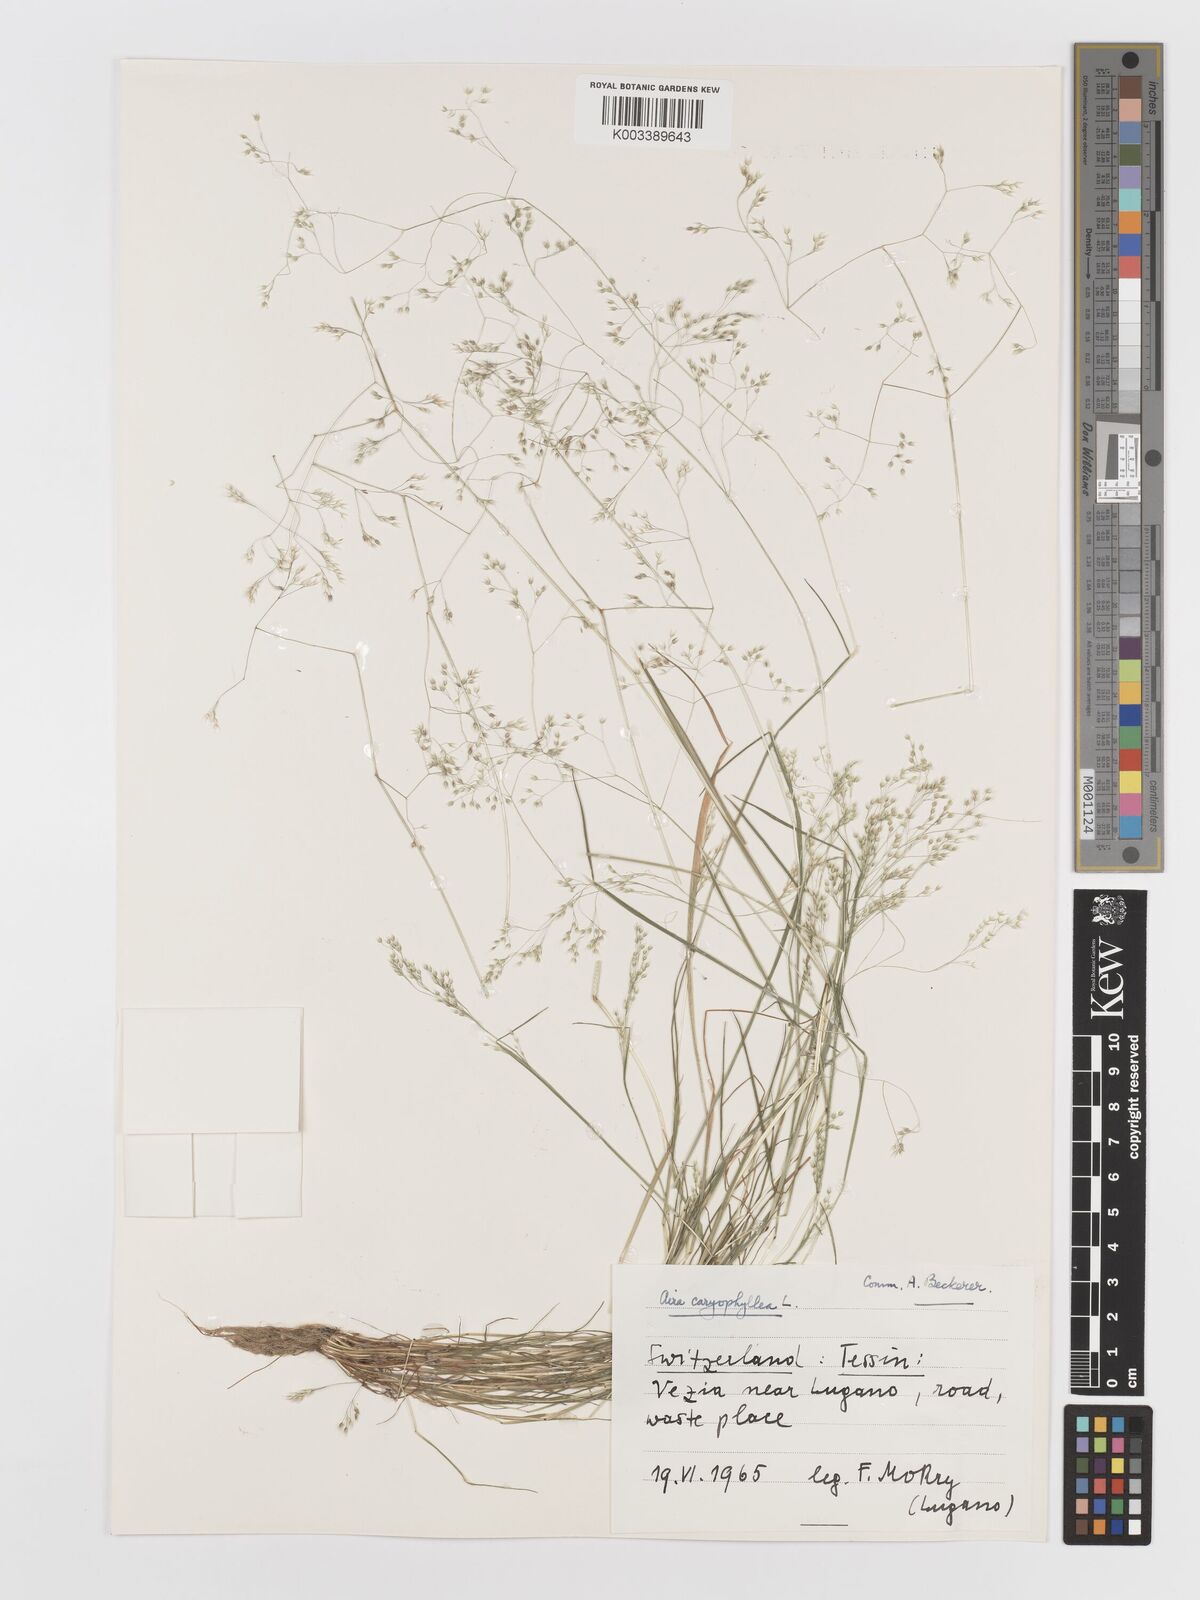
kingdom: Plantae
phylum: Tracheophyta
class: Liliopsida
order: Poales
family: Poaceae
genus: Aira
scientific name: Aira caryophyllea
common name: Silver hairgrass
